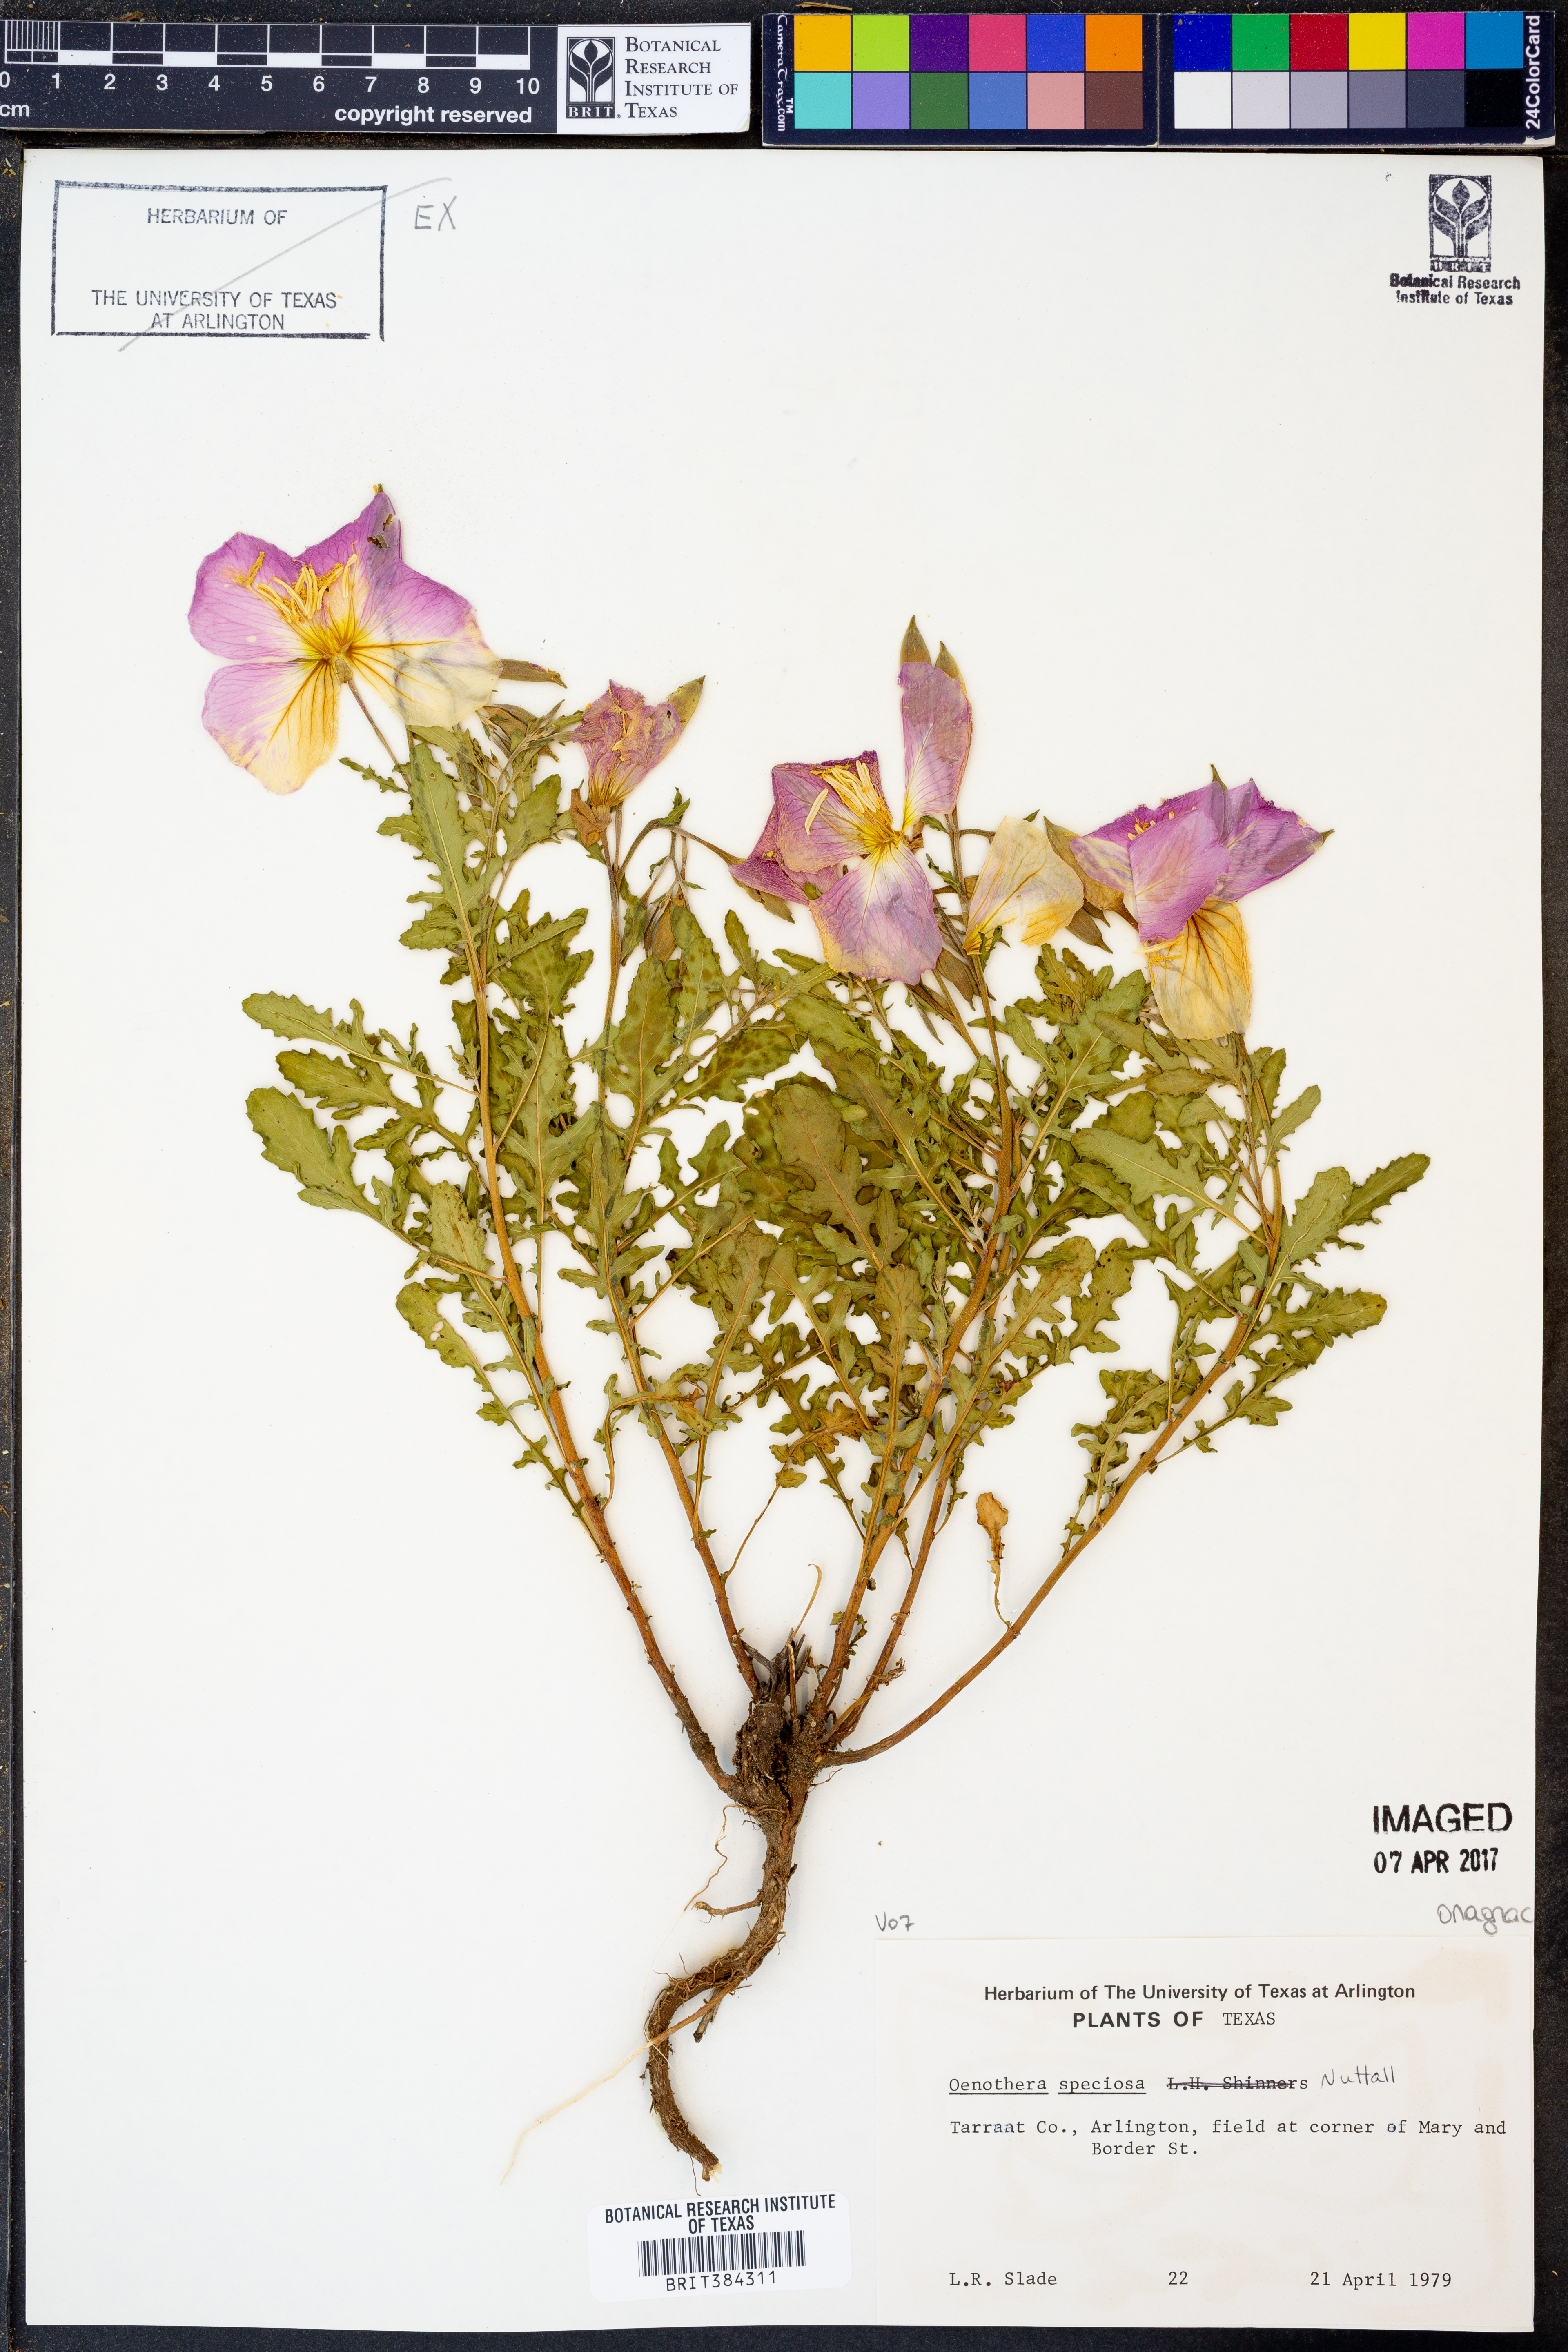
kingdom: Plantae
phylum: Tracheophyta
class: Magnoliopsida
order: Myrtales
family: Onagraceae
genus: Oenothera
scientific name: Oenothera speciosa
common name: White evening-primrose
